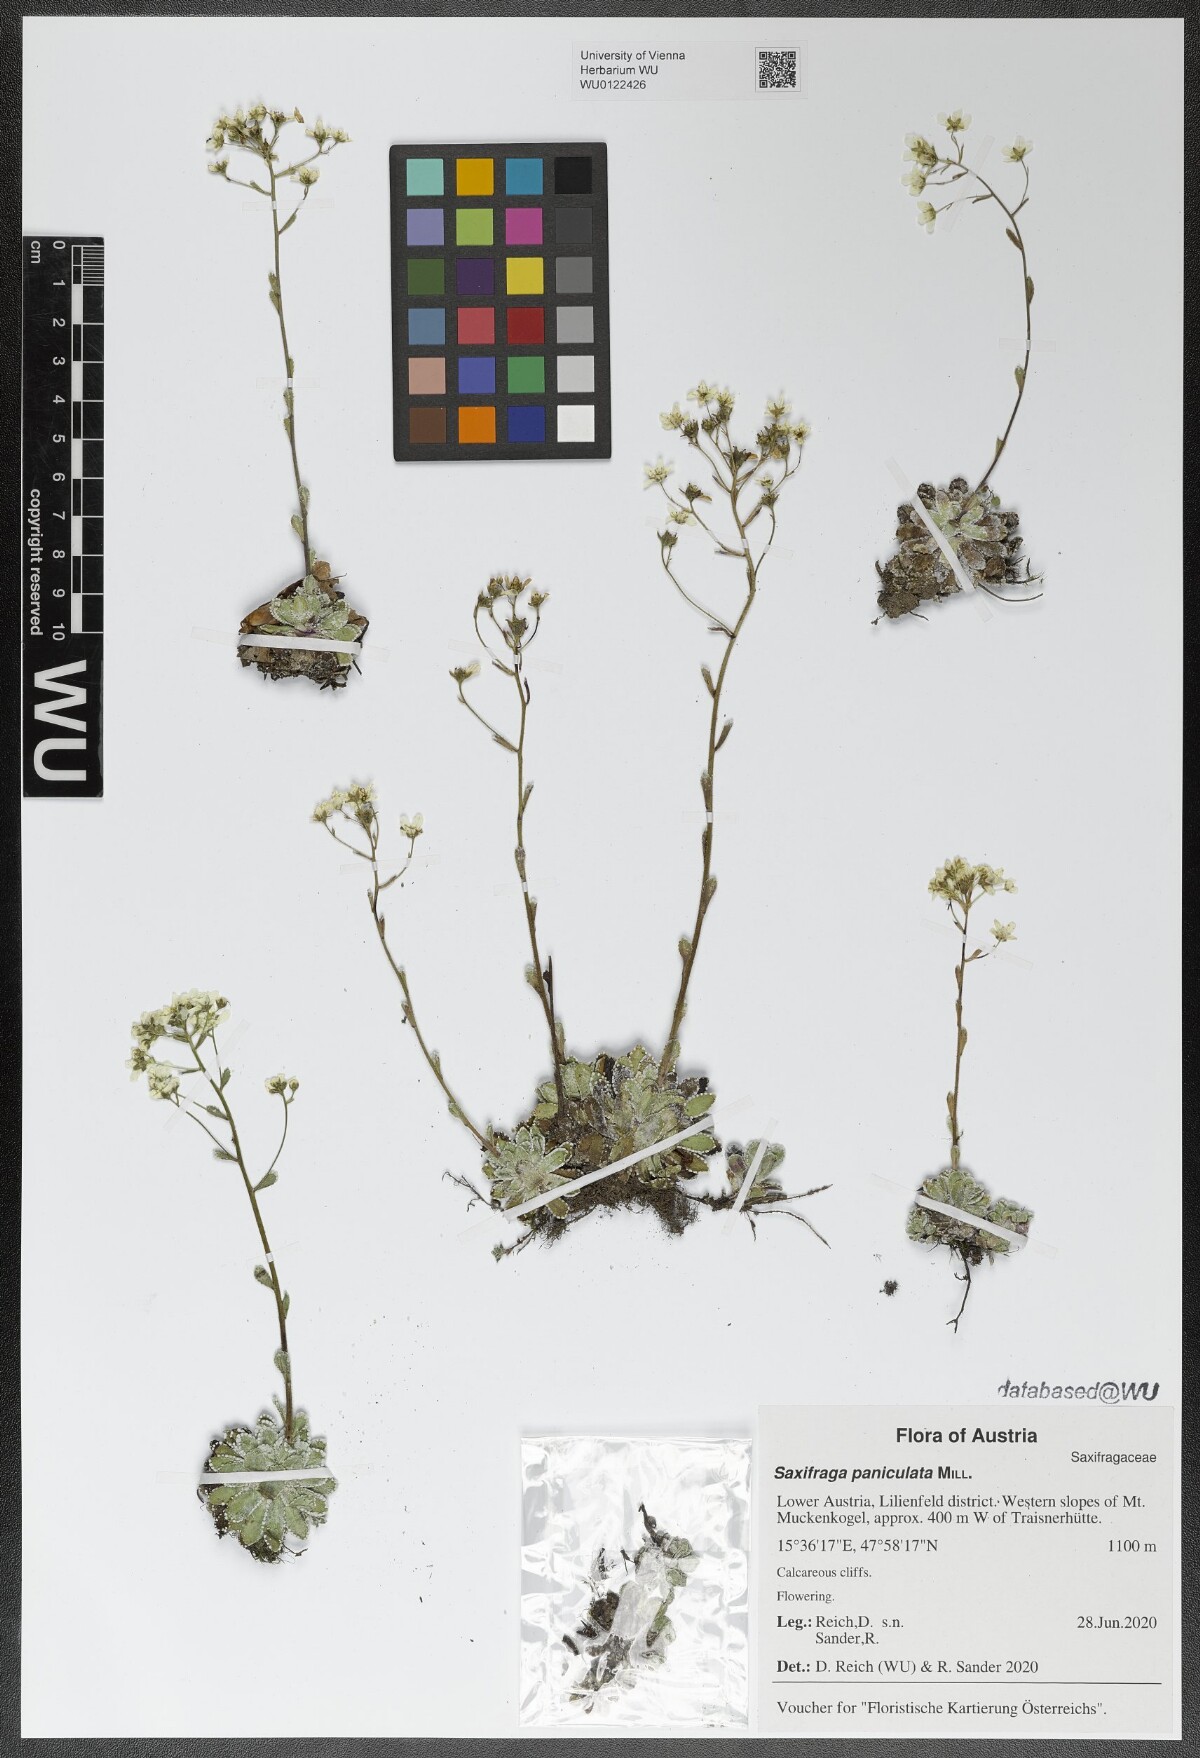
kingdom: Plantae
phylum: Tracheophyta
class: Magnoliopsida
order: Saxifragales
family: Saxifragaceae
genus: Saxifraga
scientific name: Saxifraga paniculata
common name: Livelong saxifrage
